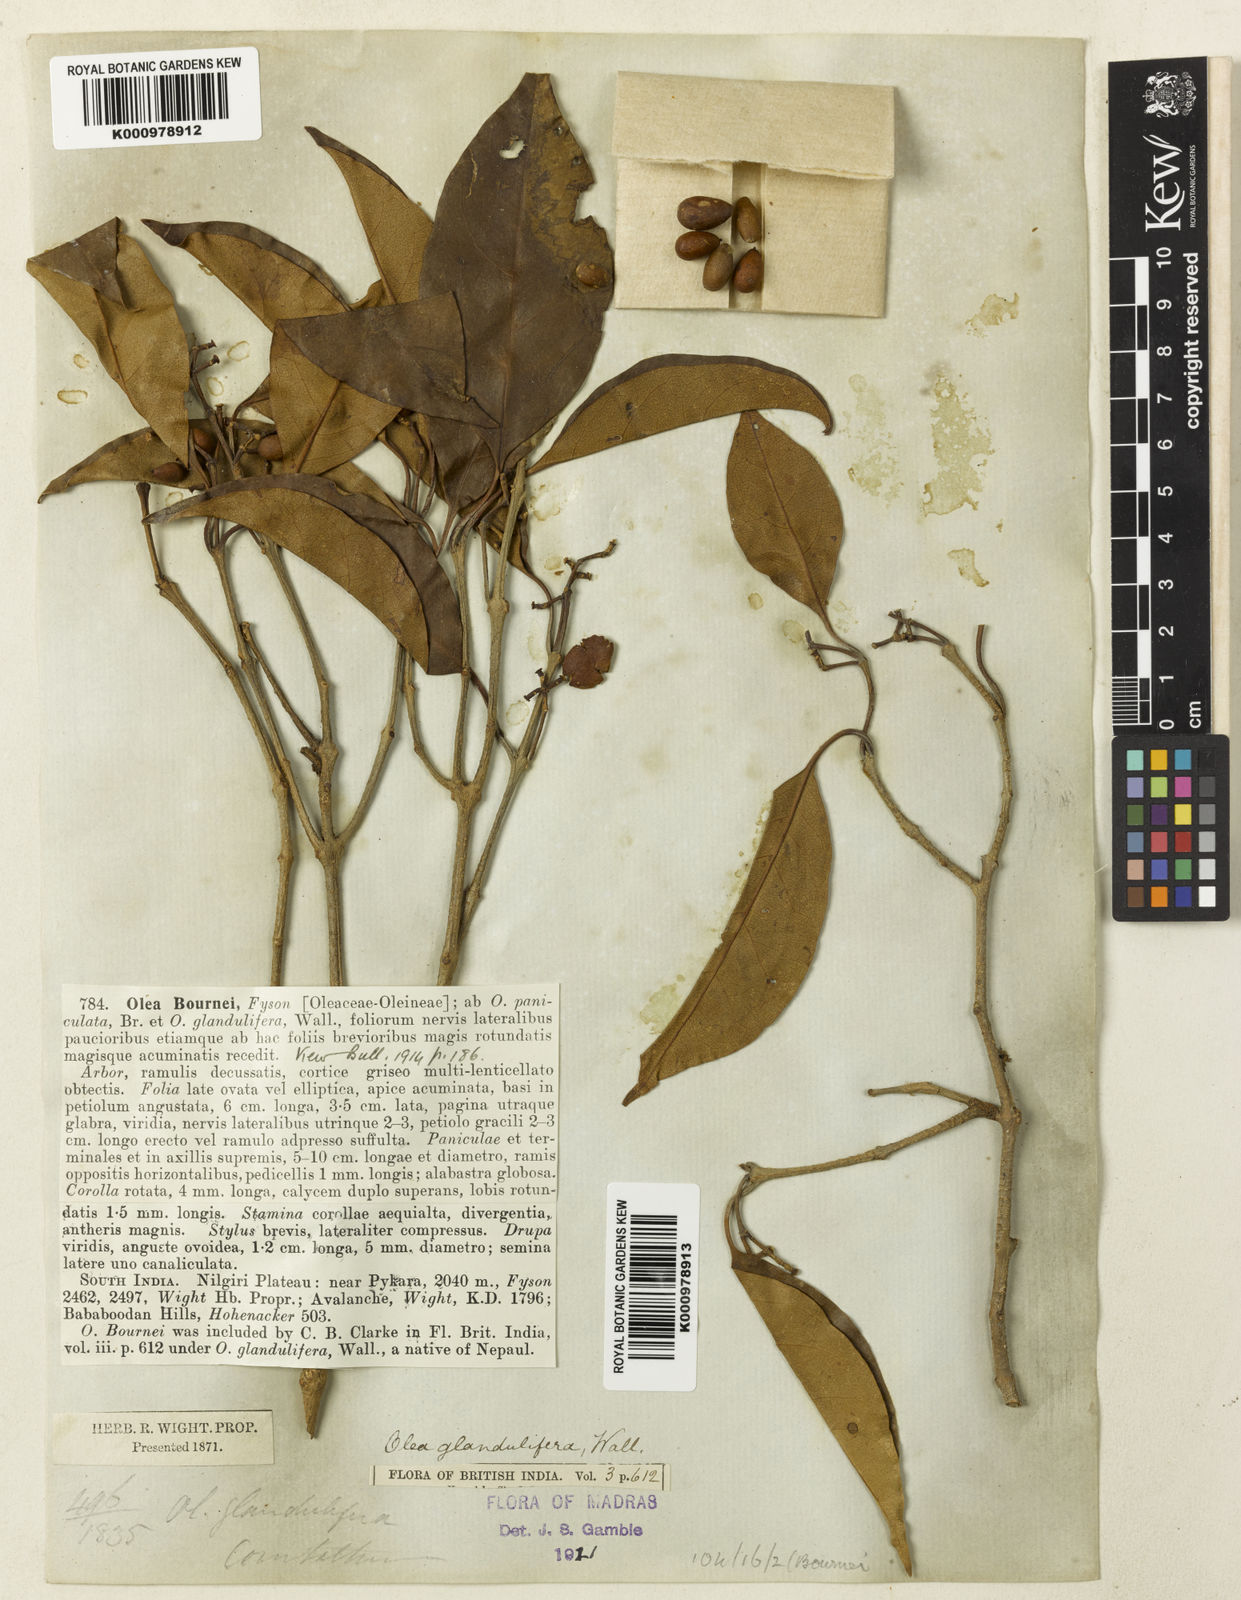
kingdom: Plantae
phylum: Tracheophyta
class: Magnoliopsida
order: Lamiales
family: Oleaceae
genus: Olea
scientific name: Olea paniculata
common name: Australian olive
